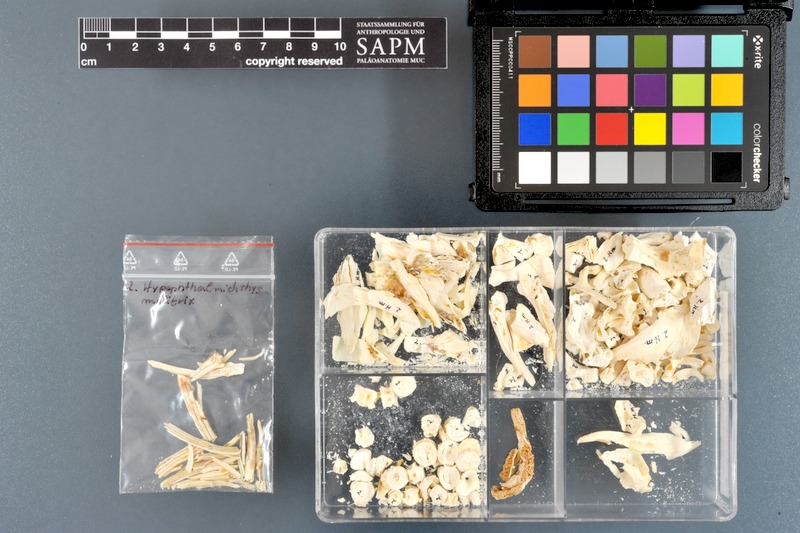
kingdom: Animalia
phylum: Chordata
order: Cypriniformes
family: Cyprinidae
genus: Hypophthalmichthys
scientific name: Hypophthalmichthys molitrix
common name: Silver carp
